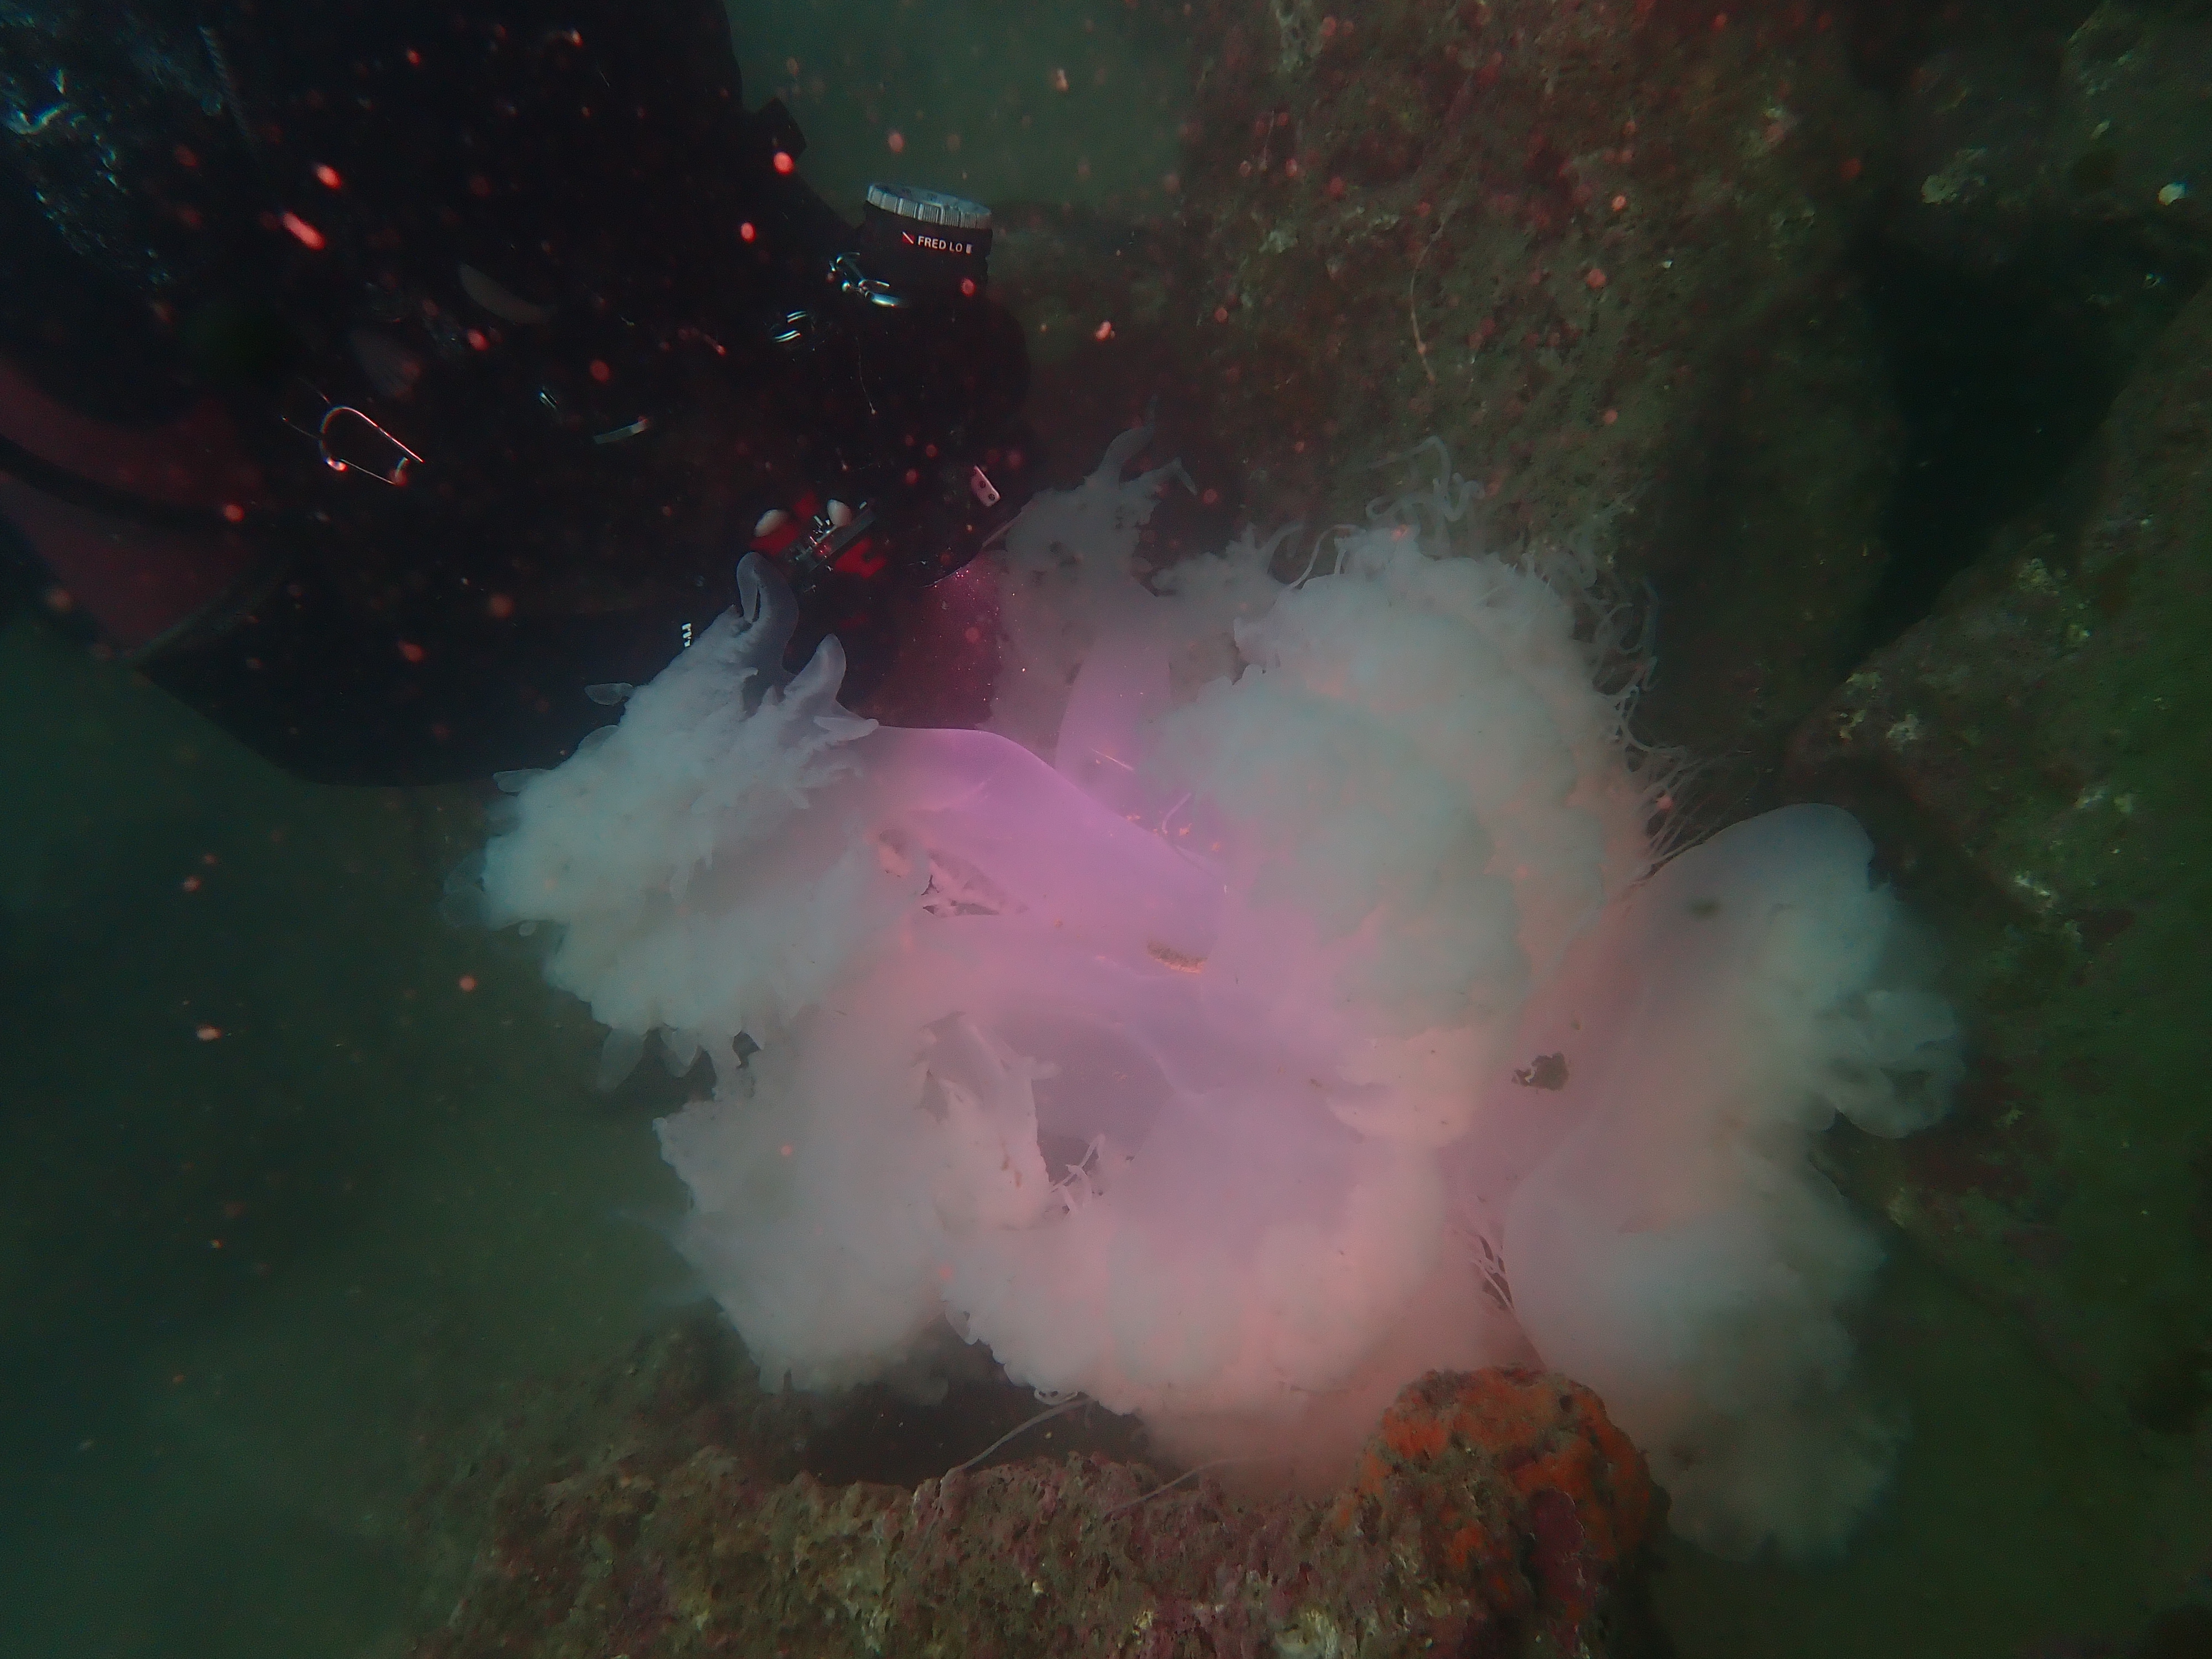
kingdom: Animalia
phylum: Cnidaria
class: Scyphozoa
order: Rhizostomeae
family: Rhizostomatidae
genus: Rhopilema
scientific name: Rhopilema hispidum
